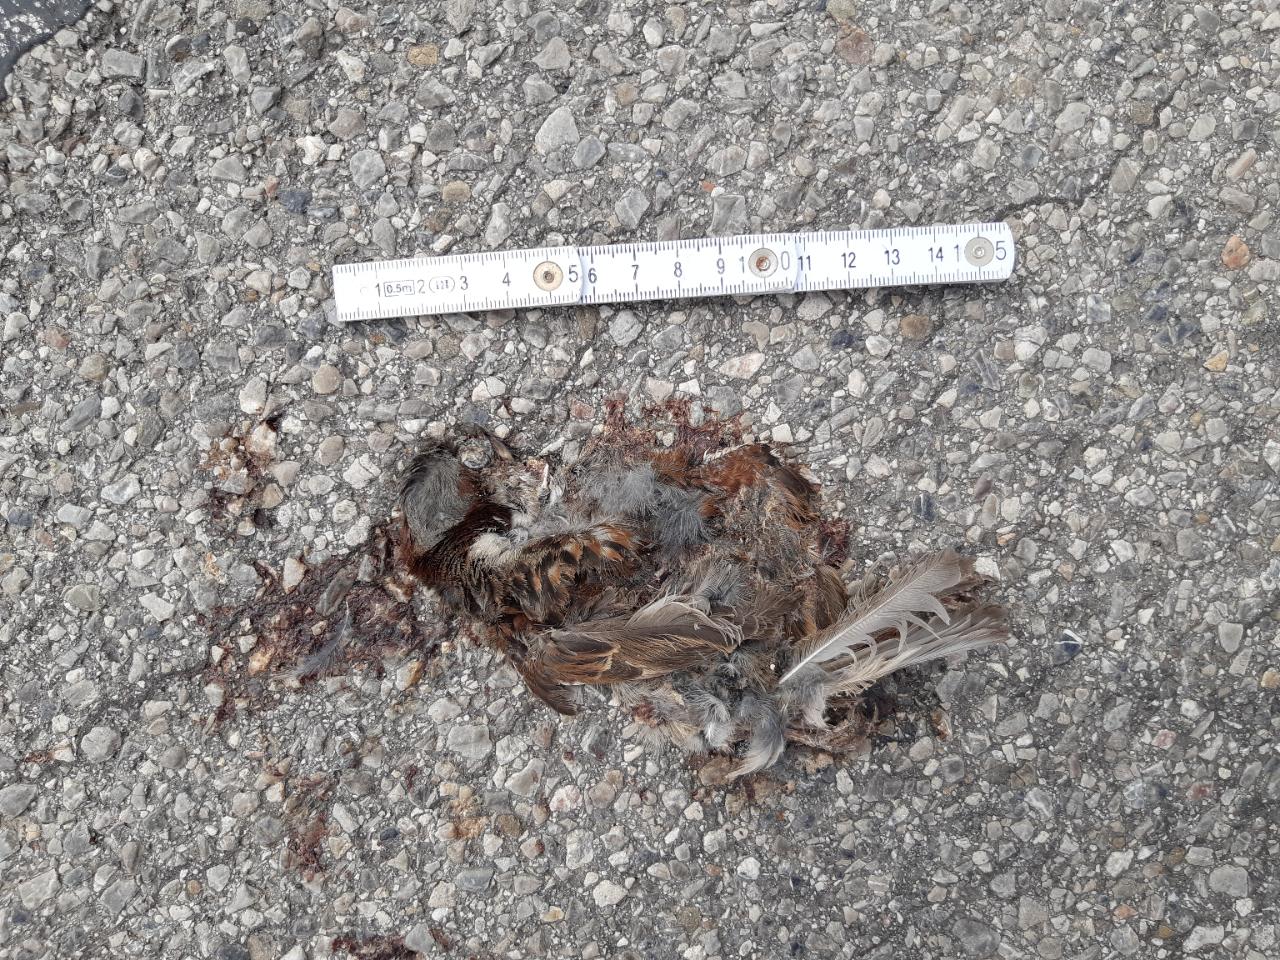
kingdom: Animalia
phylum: Chordata
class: Aves
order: Passeriformes
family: Passeridae
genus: Passer
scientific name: Passer domesticus
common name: House sparrow
